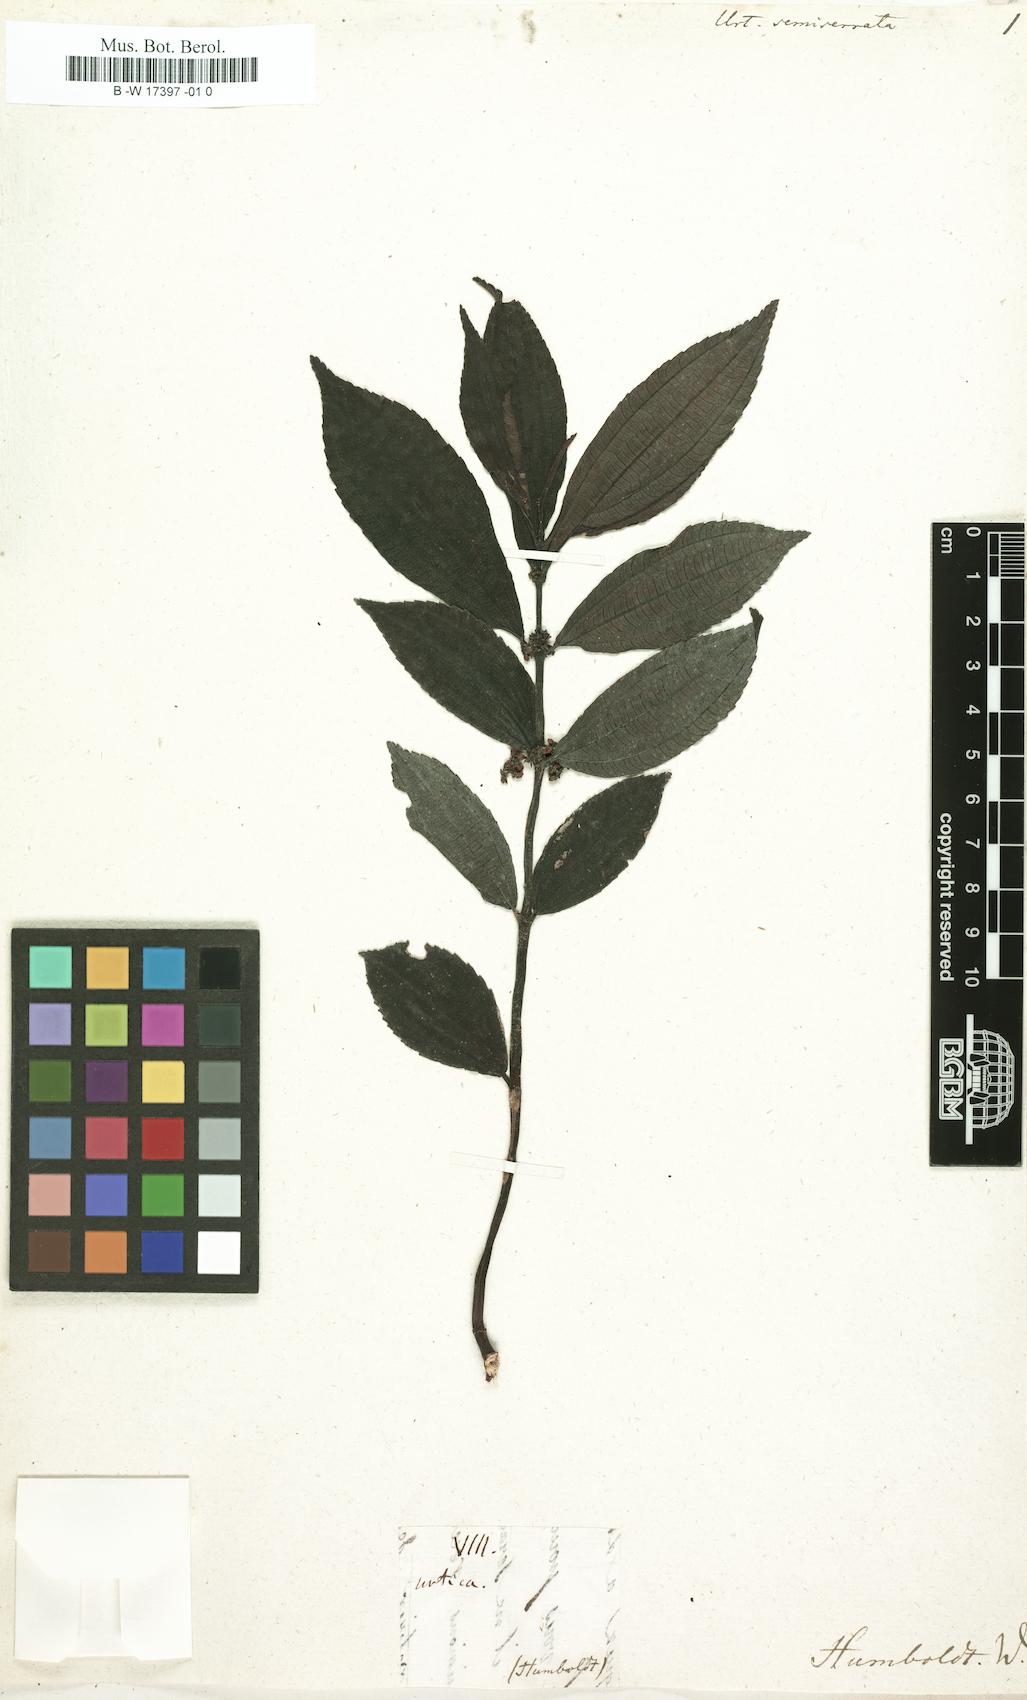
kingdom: Plantae
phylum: Tracheophyta
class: Magnoliopsida
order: Rosales
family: Urticaceae
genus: Phenax
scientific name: Phenax sonneratii
